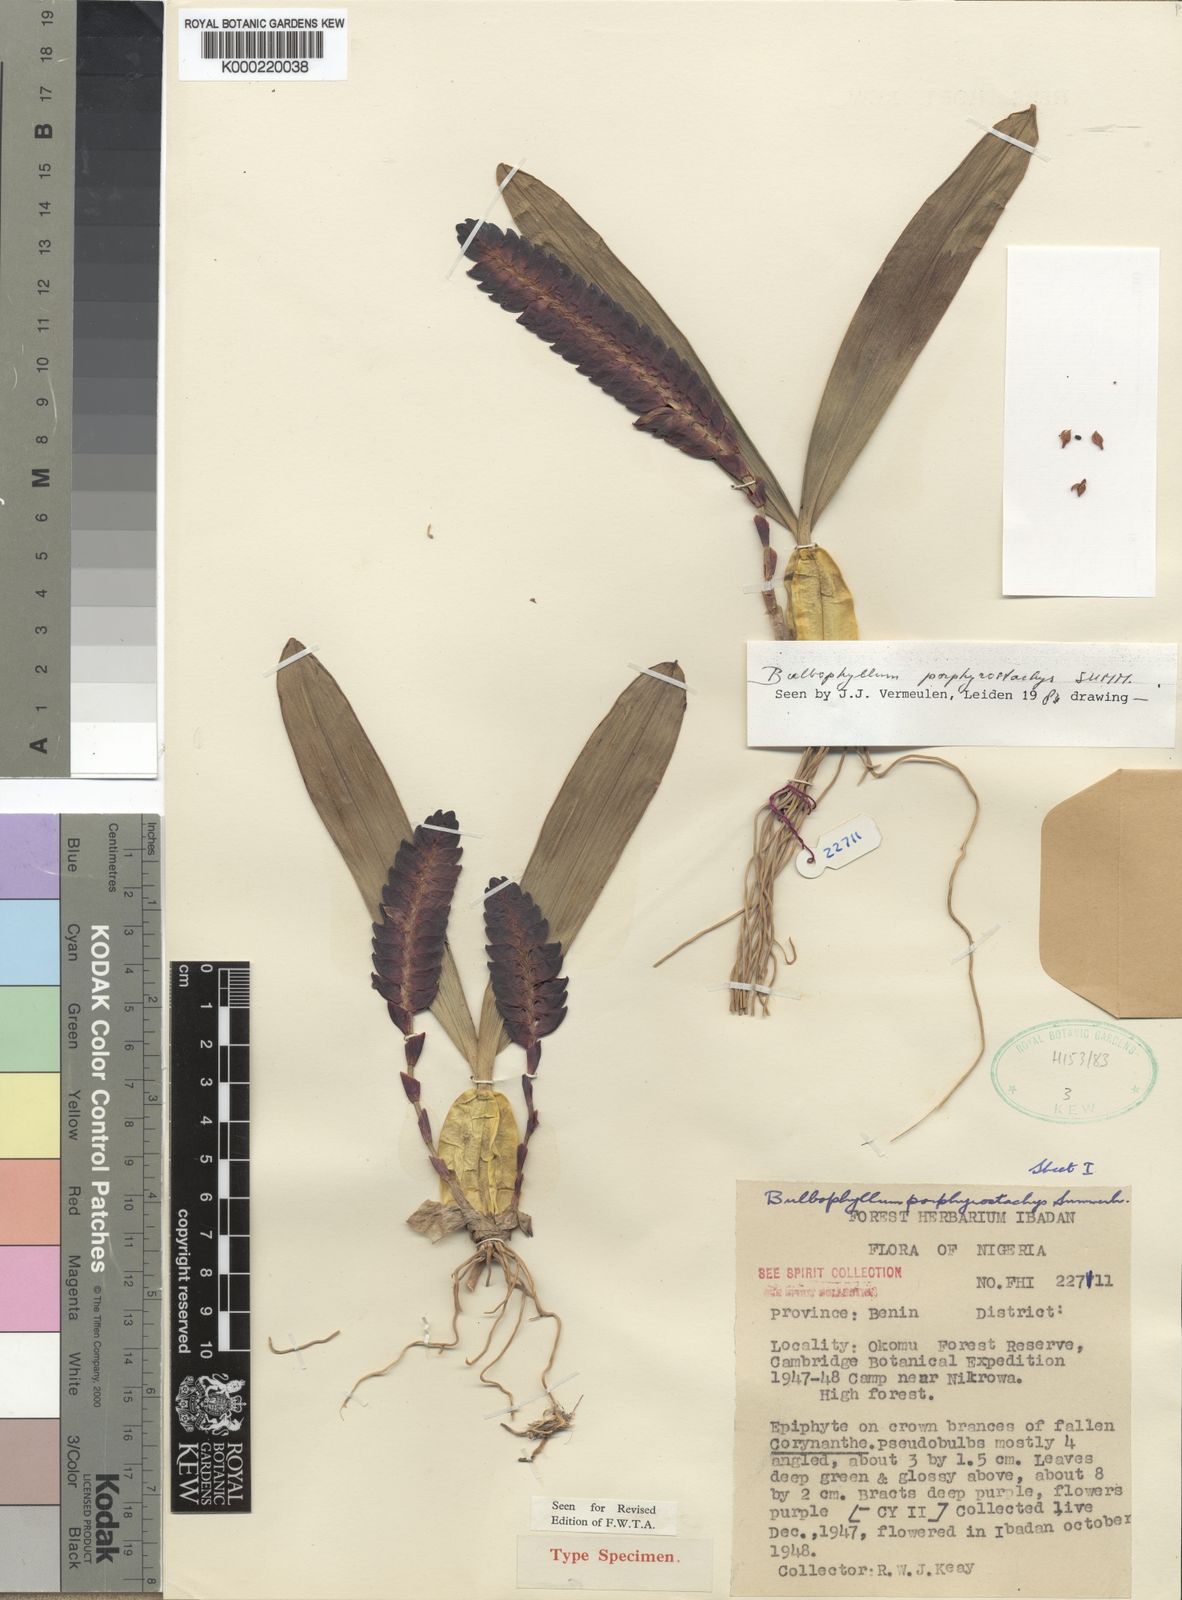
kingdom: Plantae
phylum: Tracheophyta
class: Liliopsida
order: Asparagales
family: Orchidaceae
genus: Bulbophyllum
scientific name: Bulbophyllum porphyrostachys
